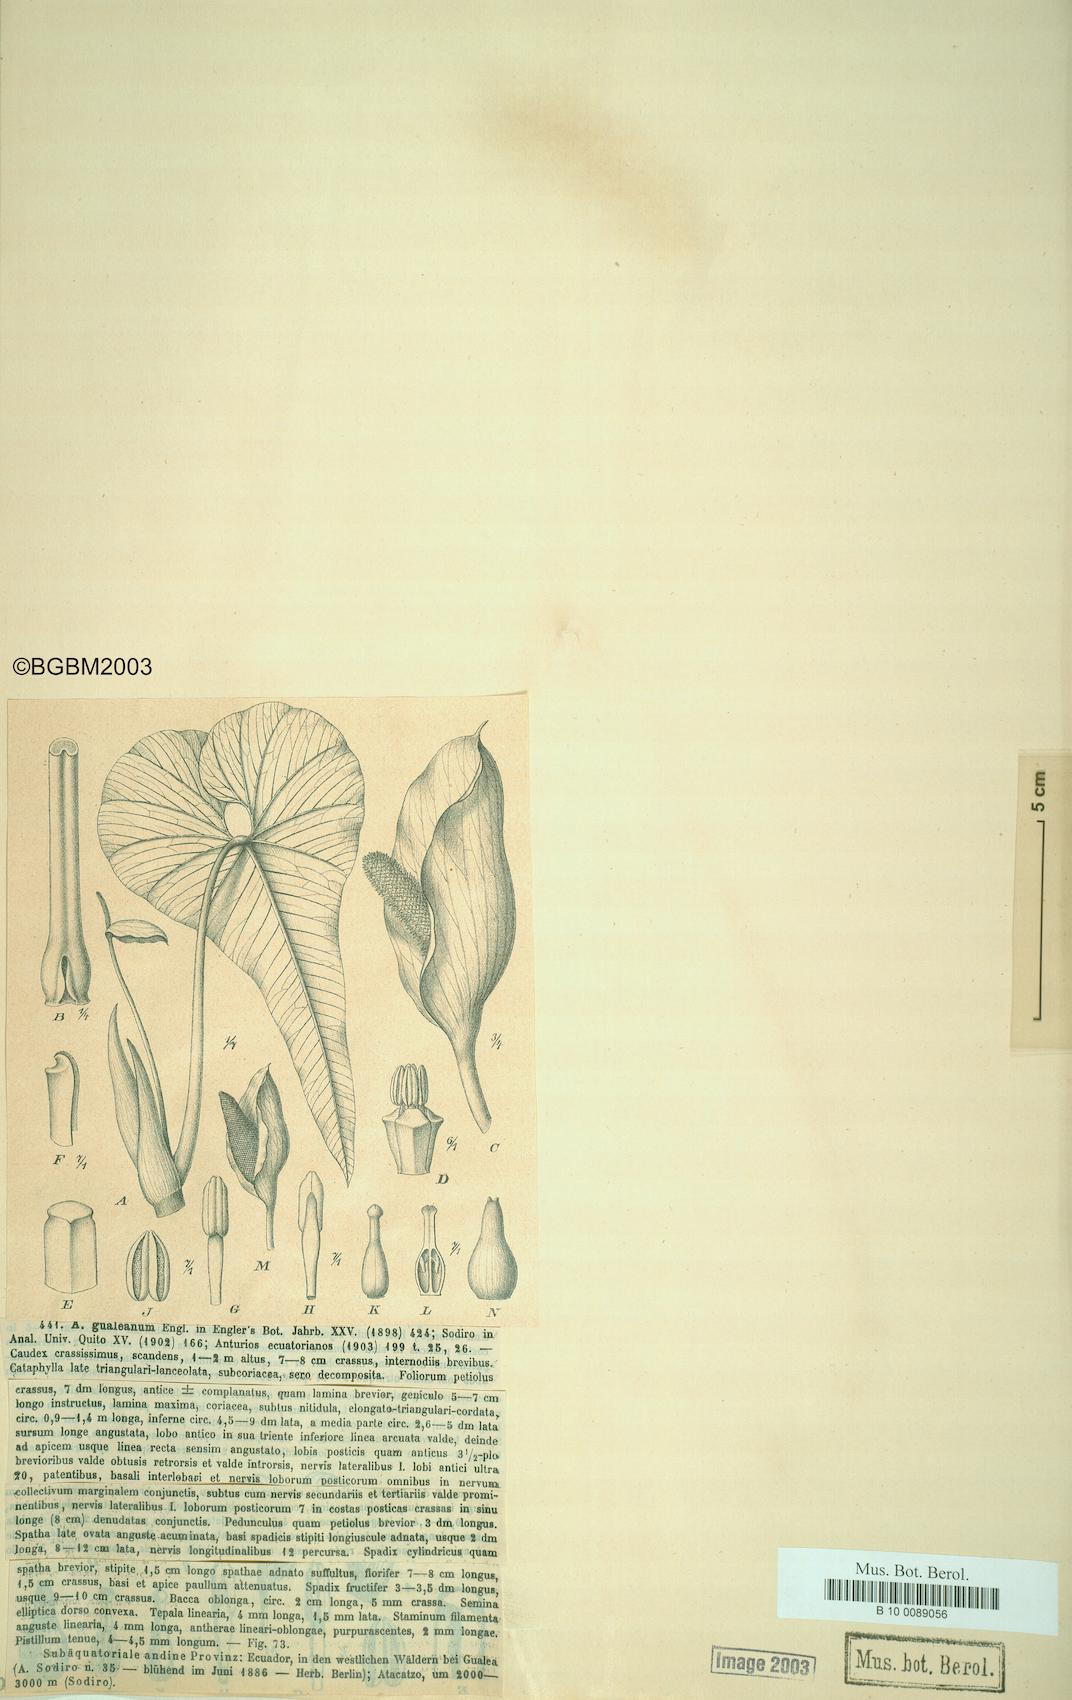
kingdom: Plantae
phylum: Tracheophyta
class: Liliopsida
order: Alismatales
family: Araceae
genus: Anthurium
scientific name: Anthurium gualeanum
